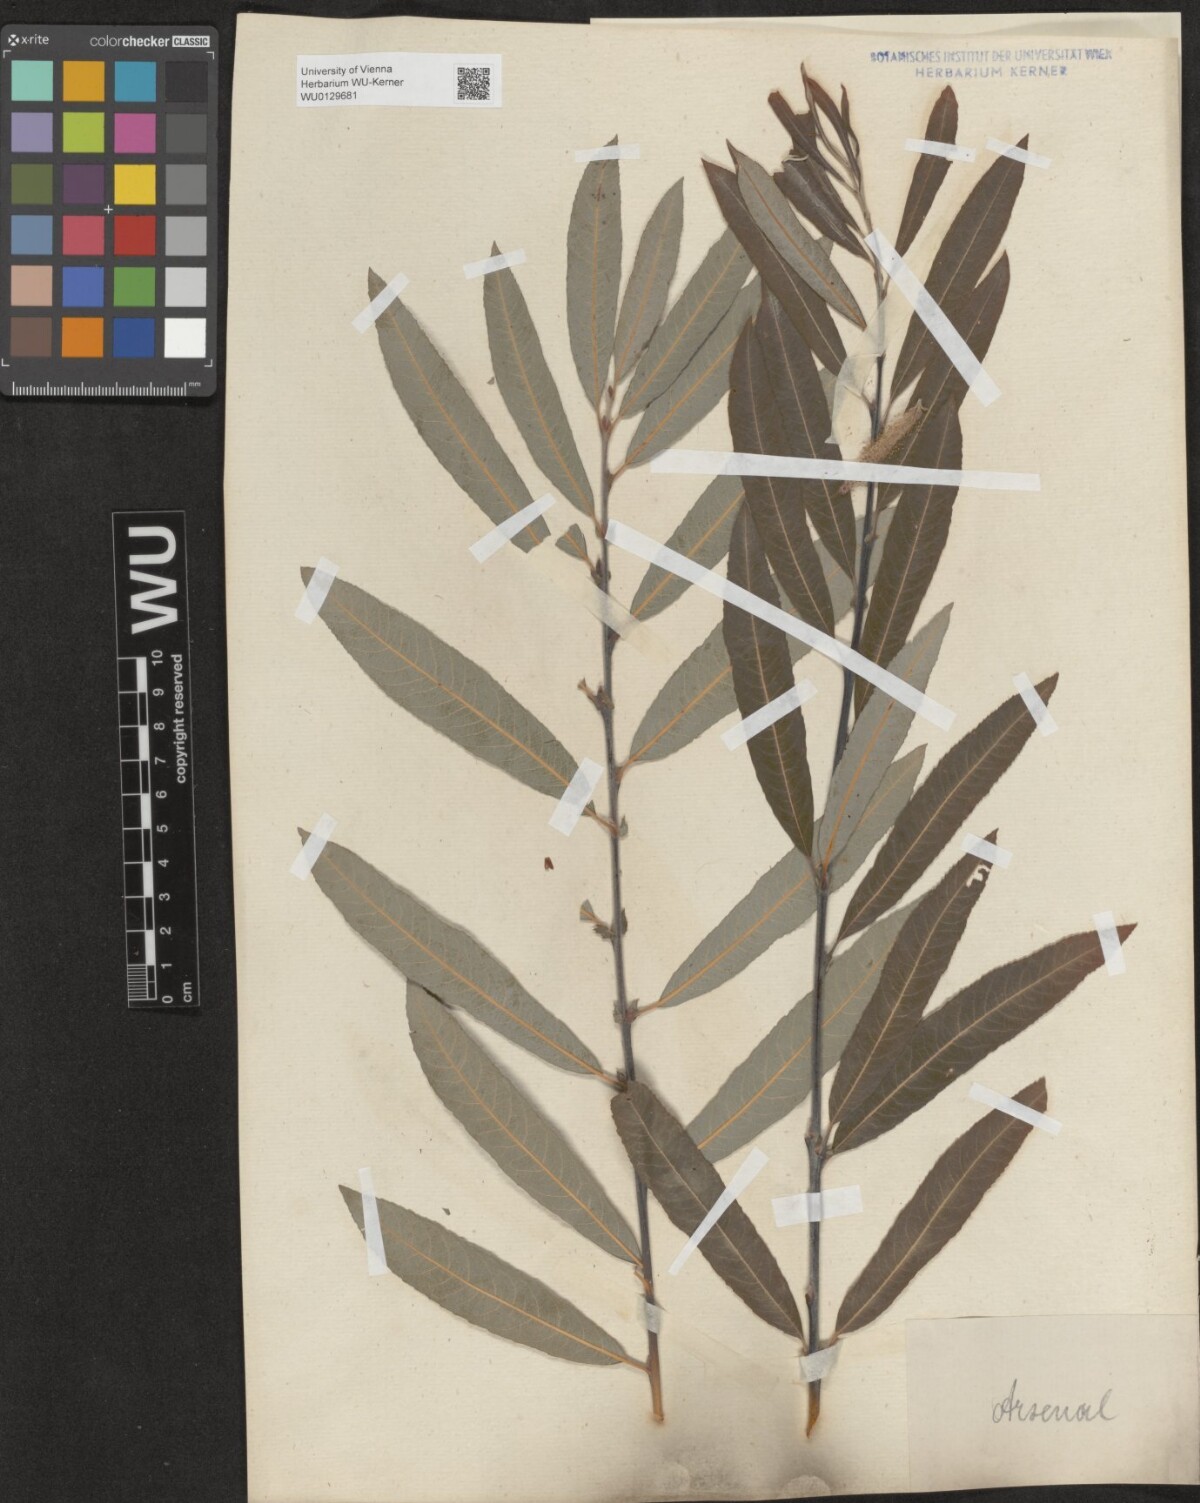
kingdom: Plantae
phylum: Tracheophyta
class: Magnoliopsida
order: Malpighiales
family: Salicaceae
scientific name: Salicaceae
